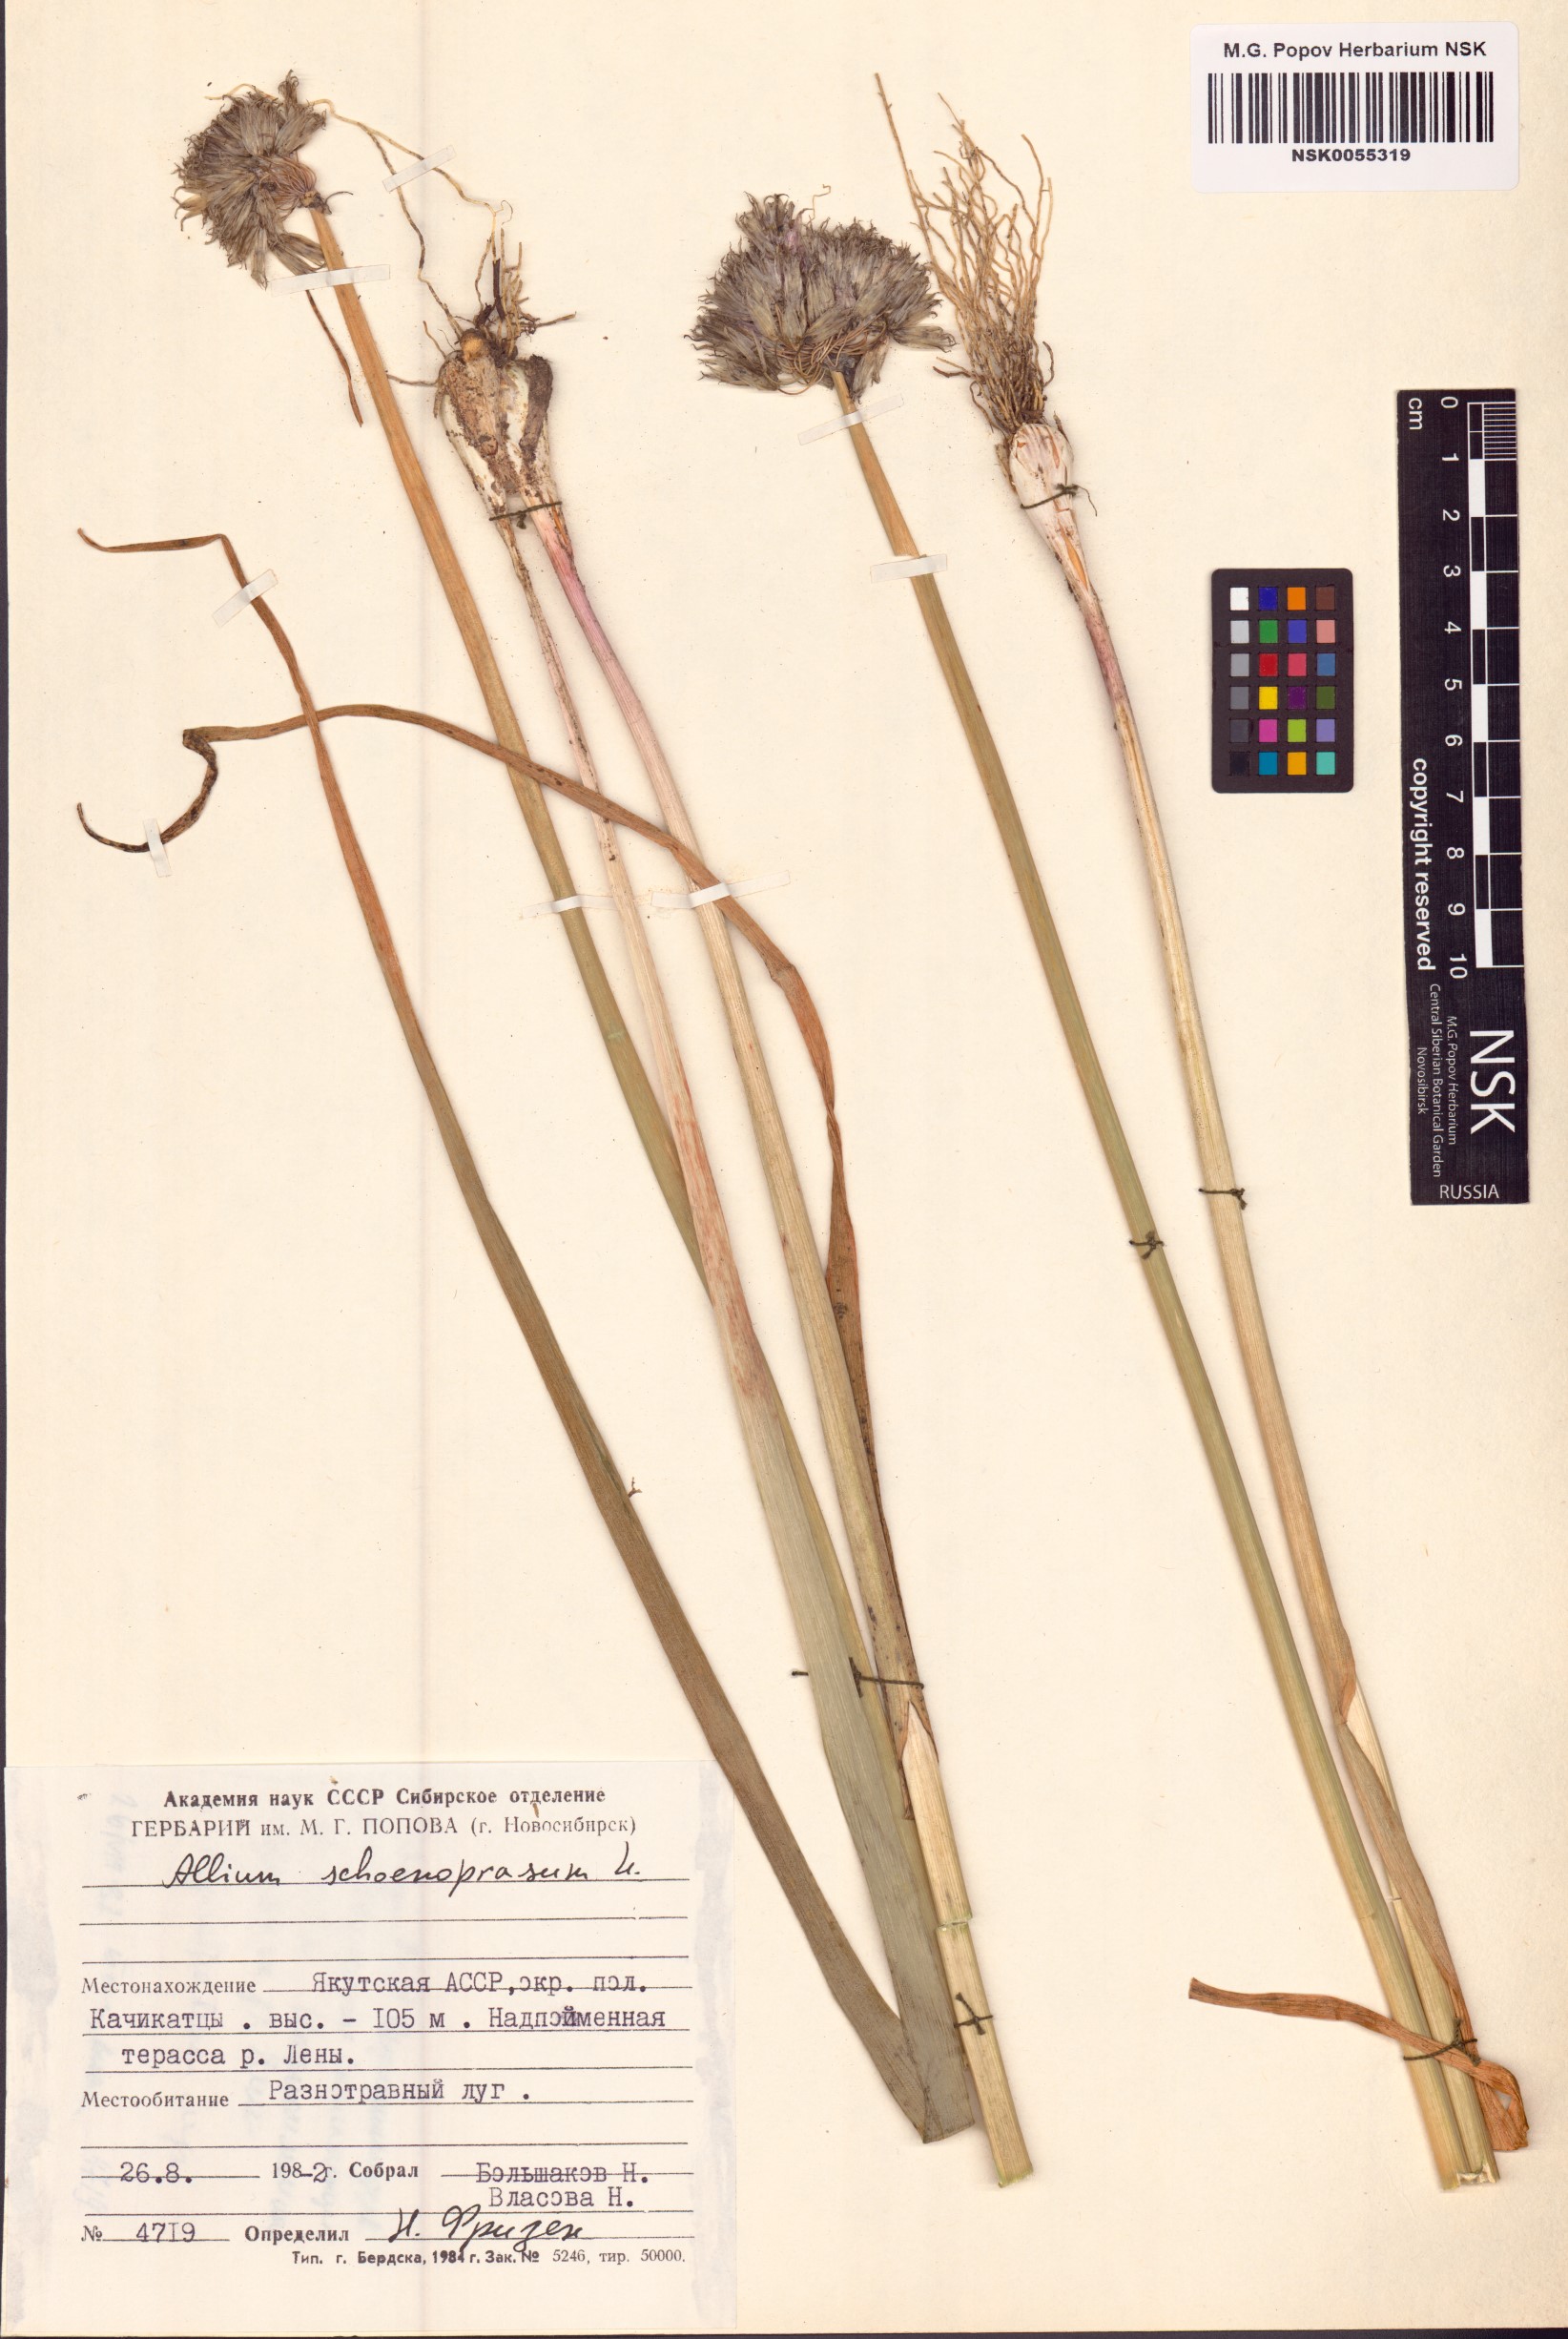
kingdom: Plantae
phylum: Tracheophyta
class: Liliopsida
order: Asparagales
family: Amaryllidaceae
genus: Allium
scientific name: Allium schoenoprasum
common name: Chives
